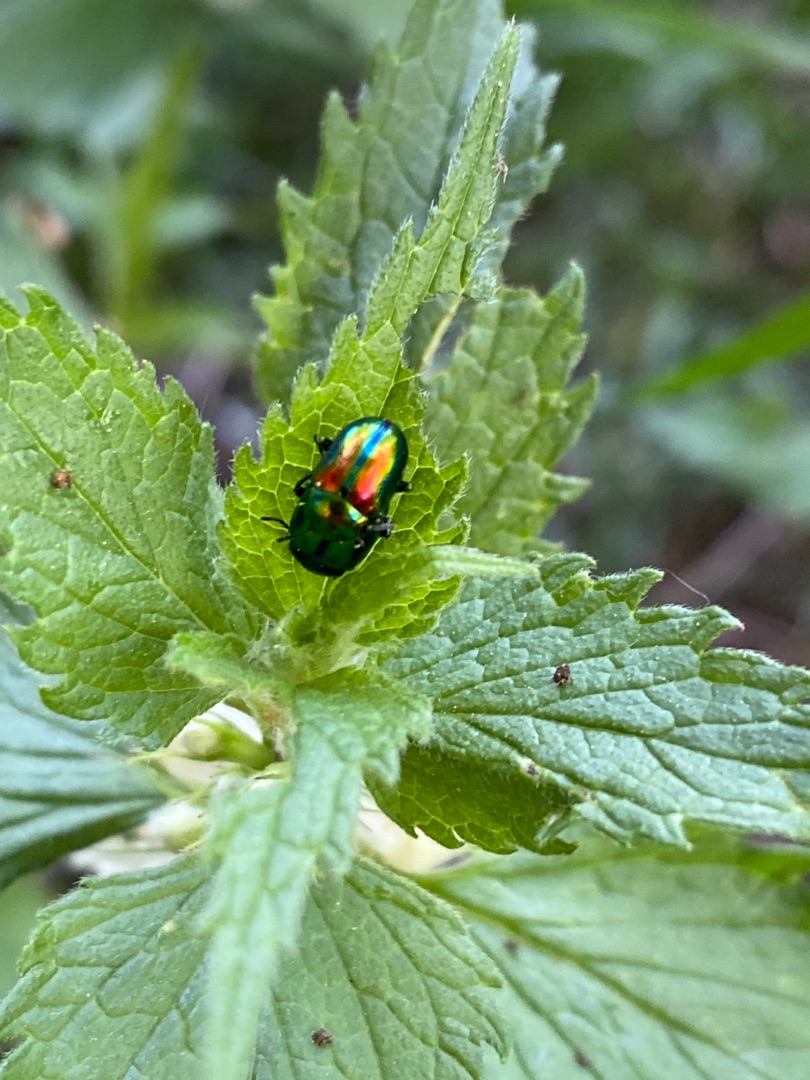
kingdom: Animalia
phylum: Arthropoda
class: Insecta
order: Coleoptera
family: Chrysomelidae
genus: Chrysolina
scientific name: Chrysolina fastuosa
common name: Tvetandbladbille
